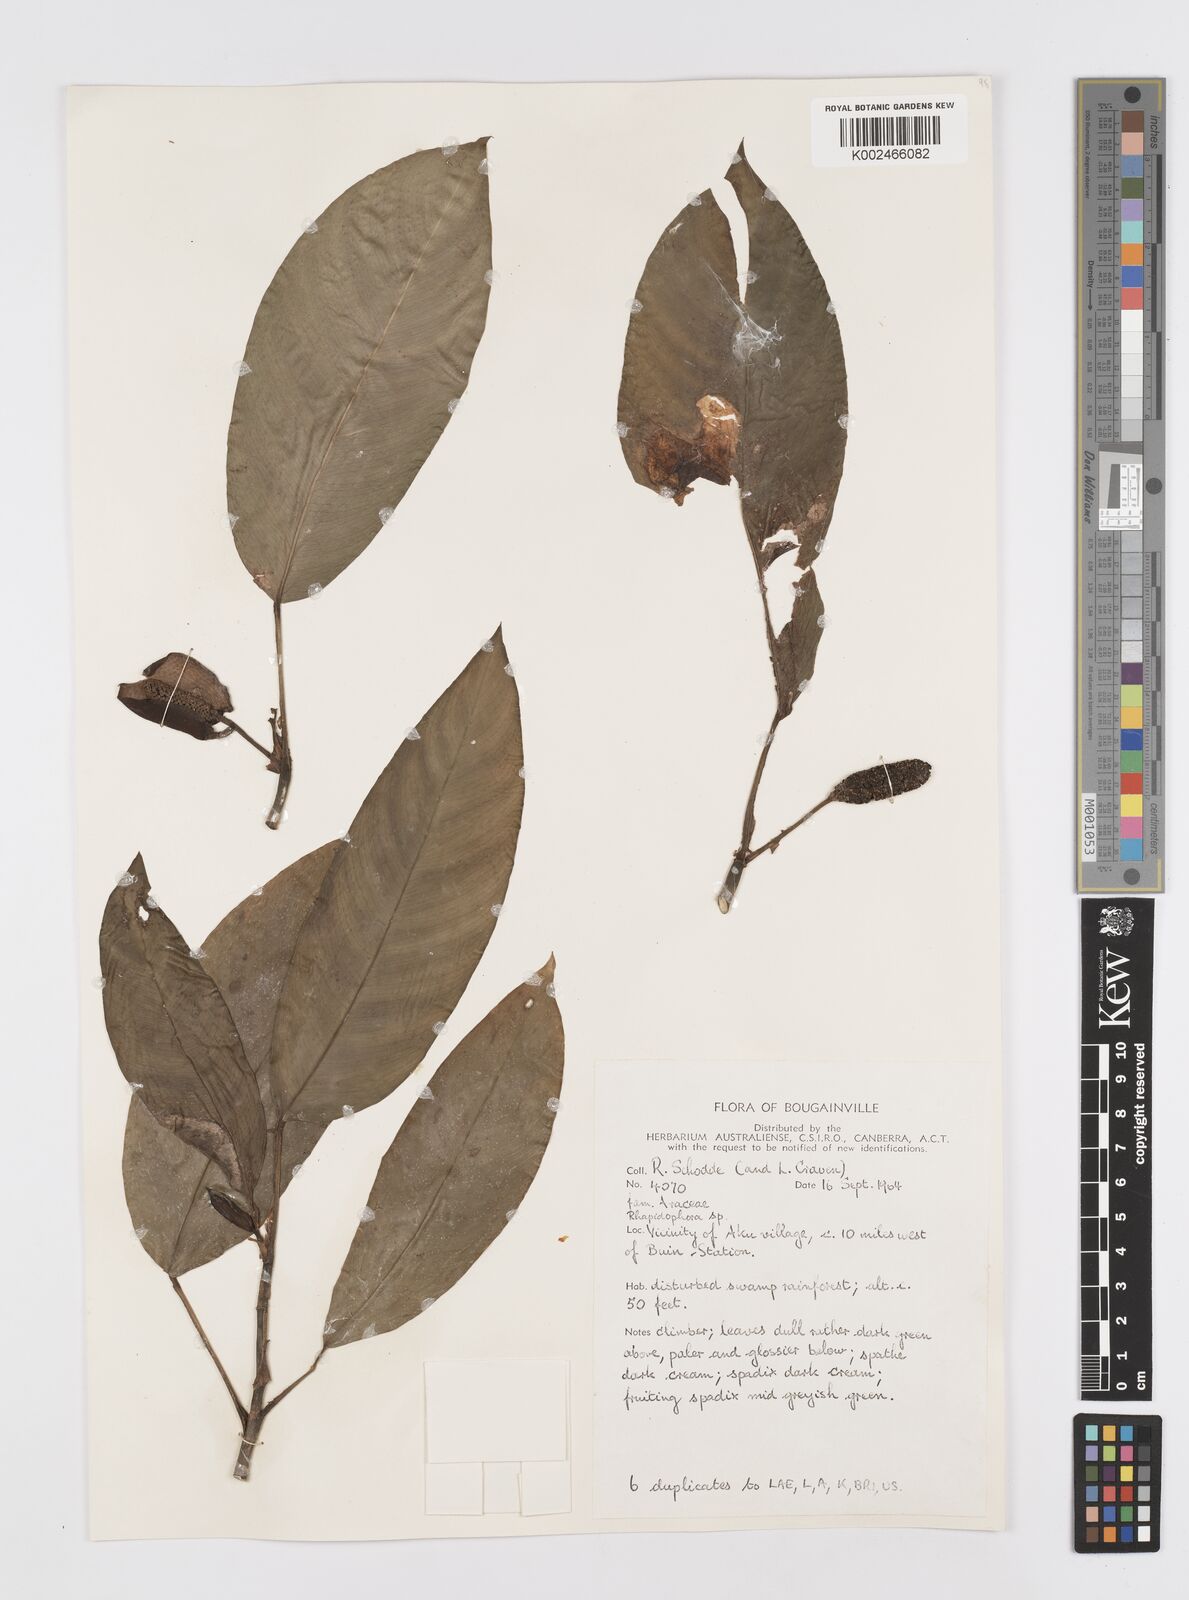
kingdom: Plantae
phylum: Tracheophyta
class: Liliopsida
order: Alismatales
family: Araceae
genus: Rhaphidophora
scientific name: Rhaphidophora mima
